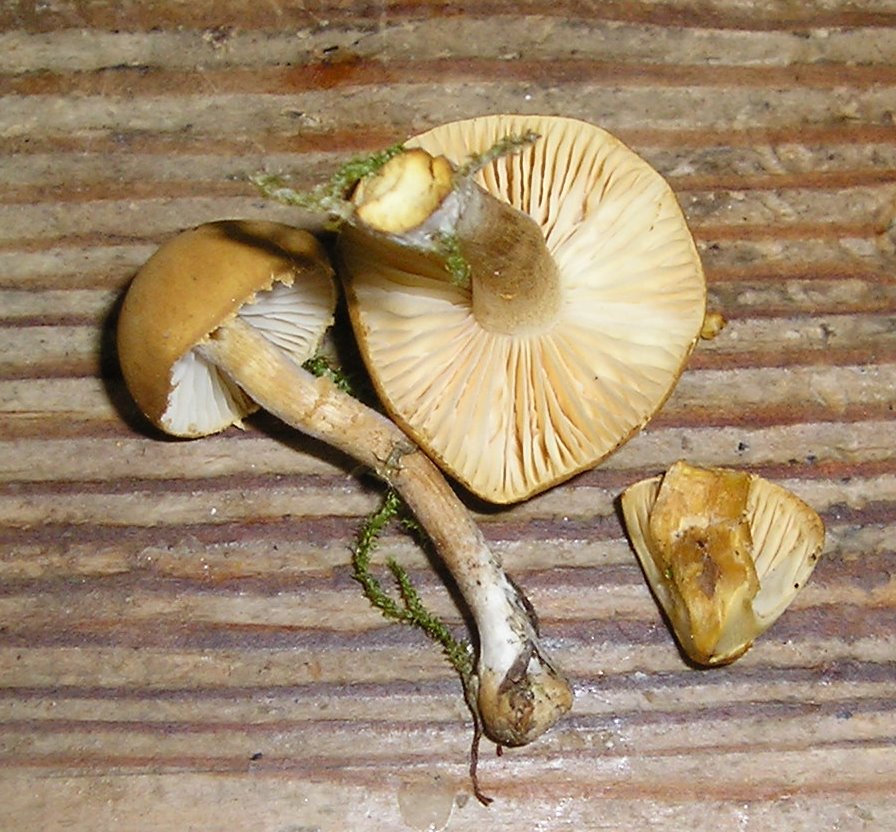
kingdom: Fungi
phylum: Basidiomycota
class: Agaricomycetes
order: Agaricales
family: Tricholomataceae
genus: Cystoderma
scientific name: Cystoderma amianthinum
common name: okkergul grynhat
